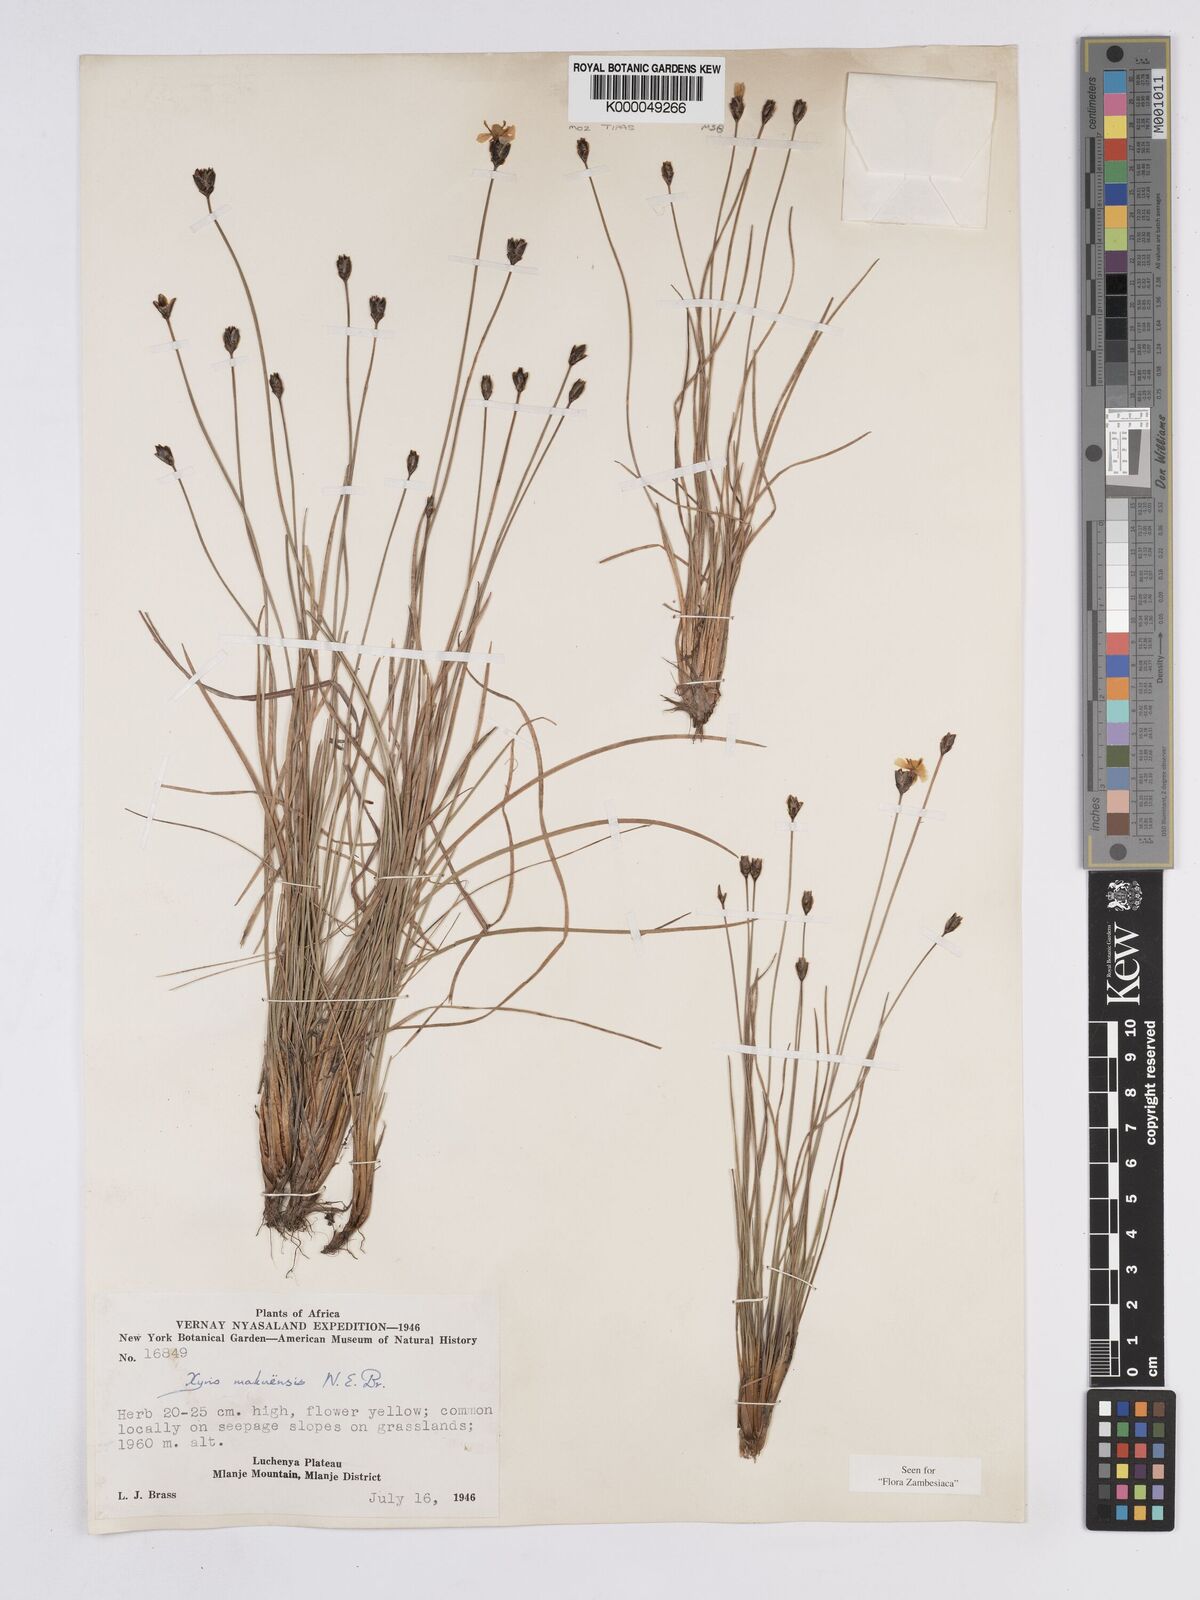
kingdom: Plantae
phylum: Tracheophyta
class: Liliopsida
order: Poales
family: Xyridaceae
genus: Xyris
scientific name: Xyris makuensis
